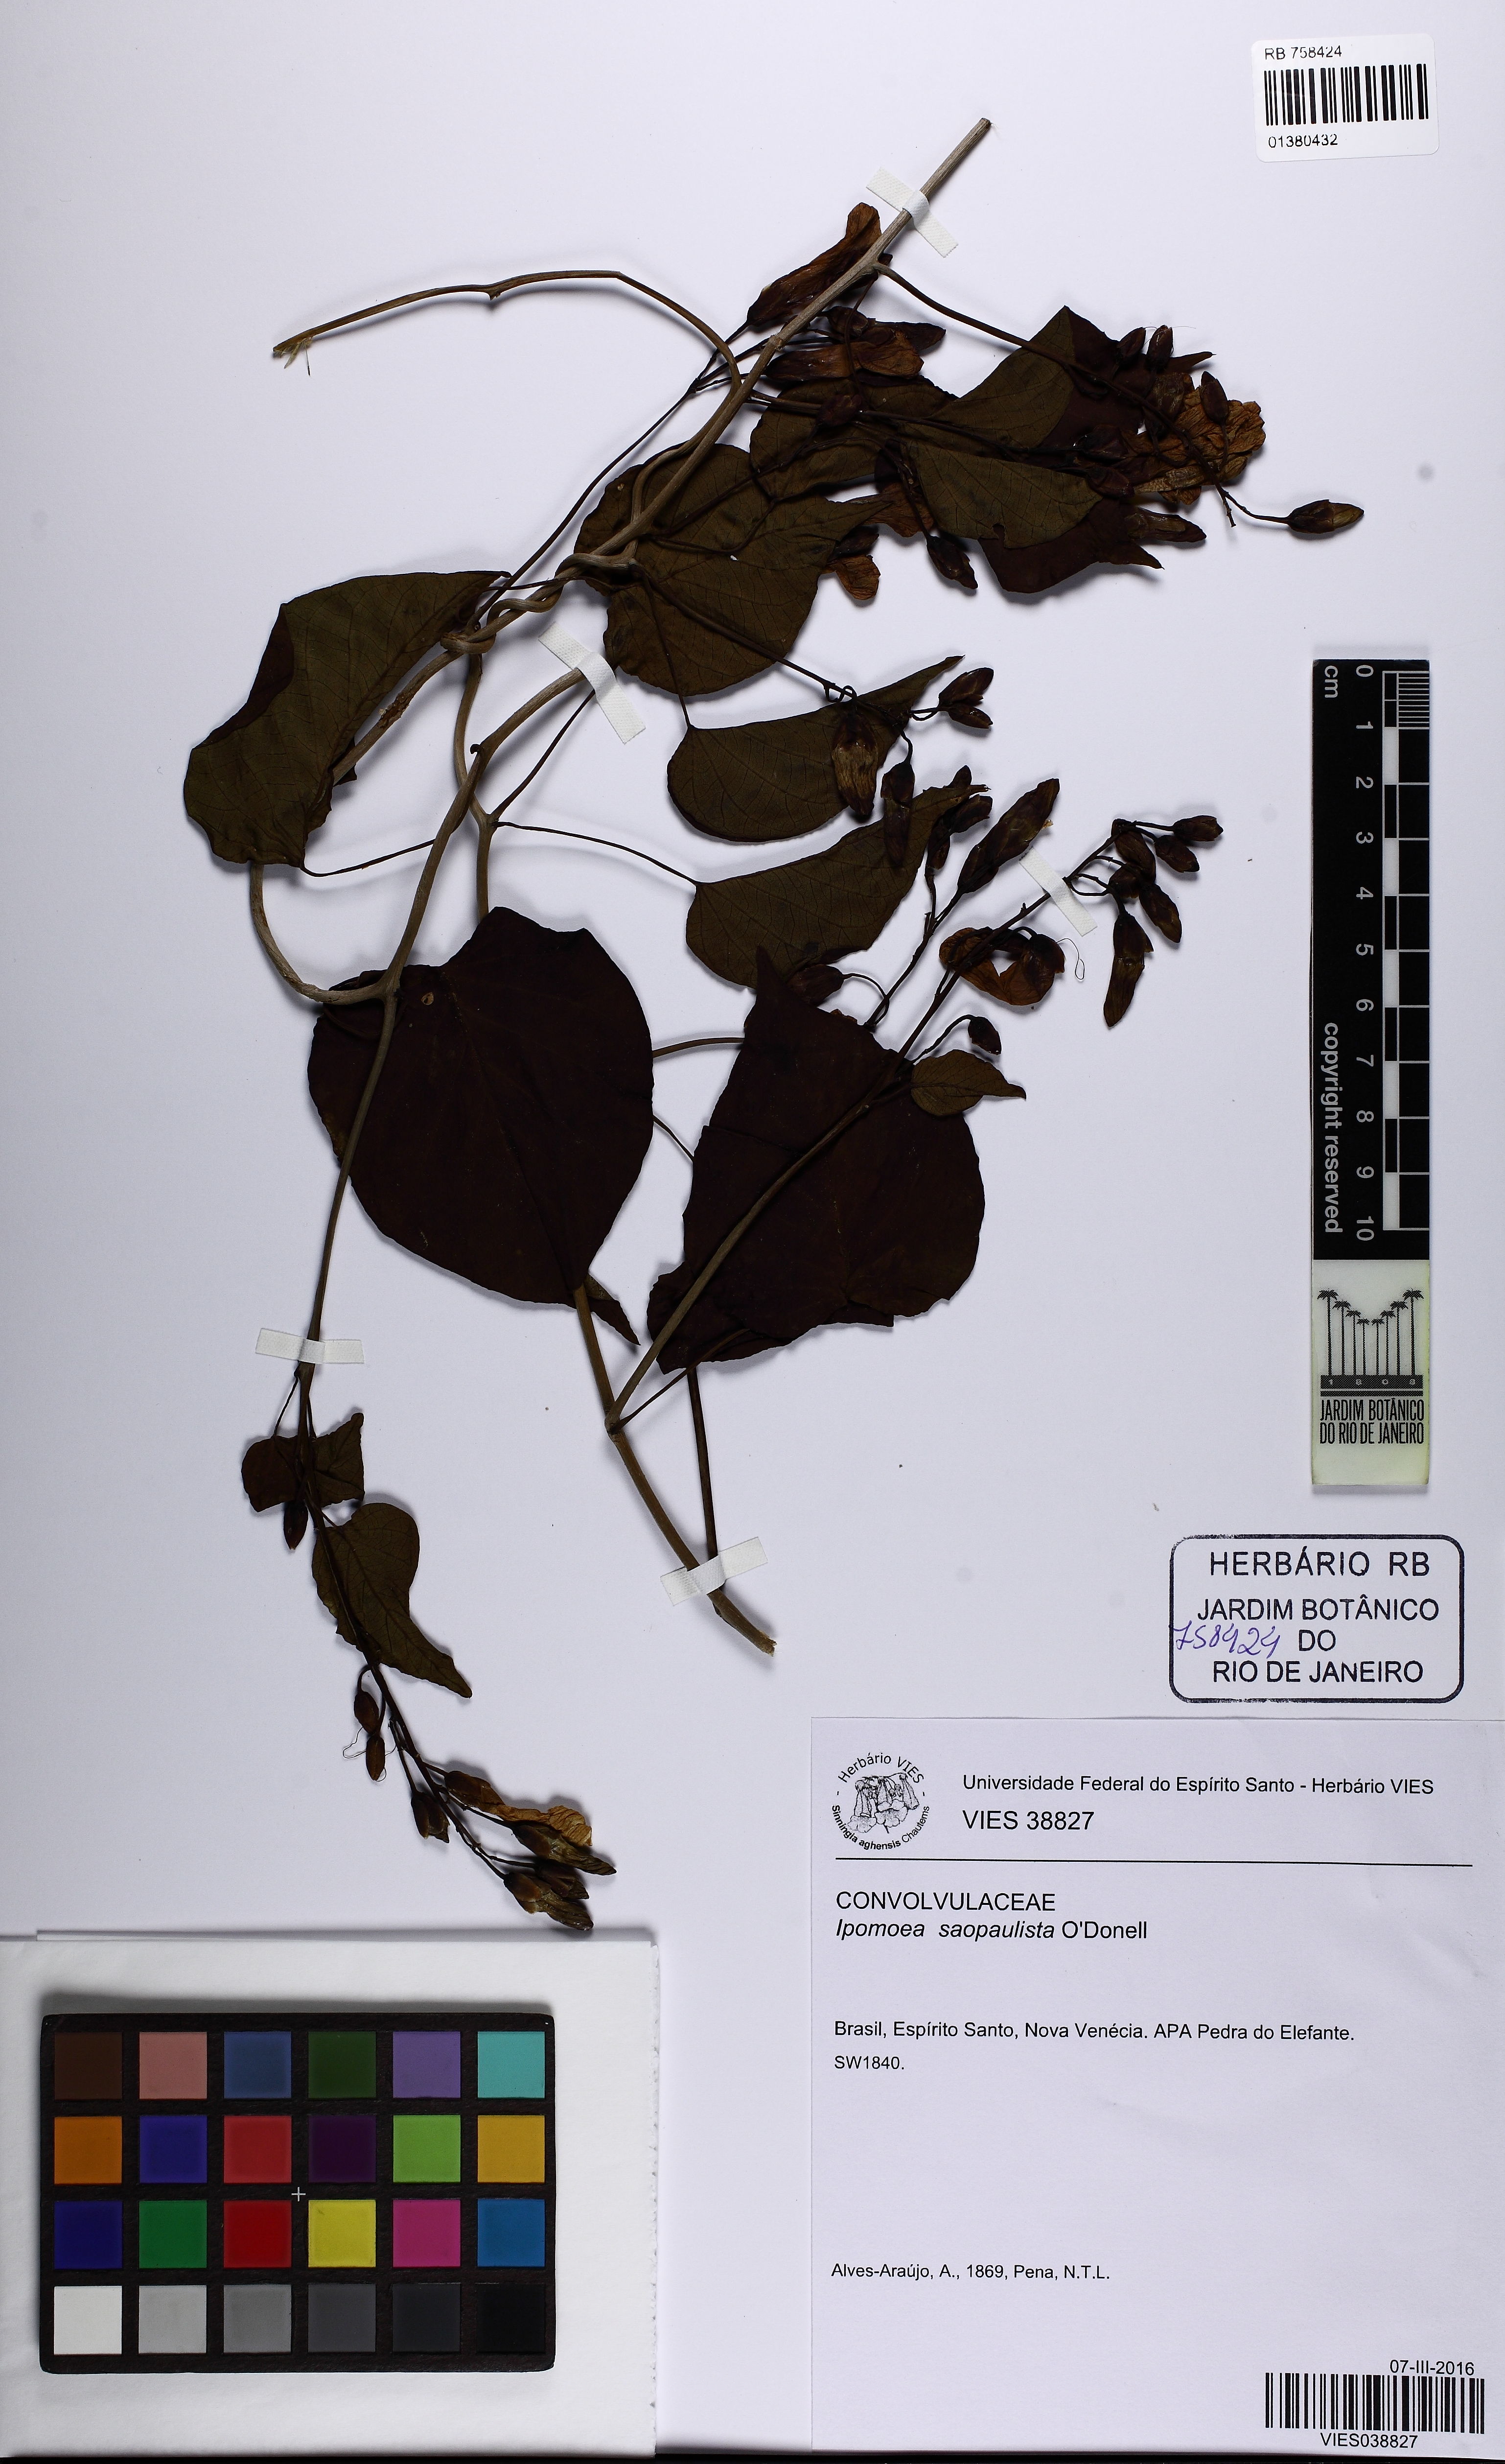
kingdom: Plantae
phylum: Tracheophyta
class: Magnoliopsida
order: Solanales
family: Convolvulaceae
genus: Ipomoea
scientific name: Ipomoea saopaulista
